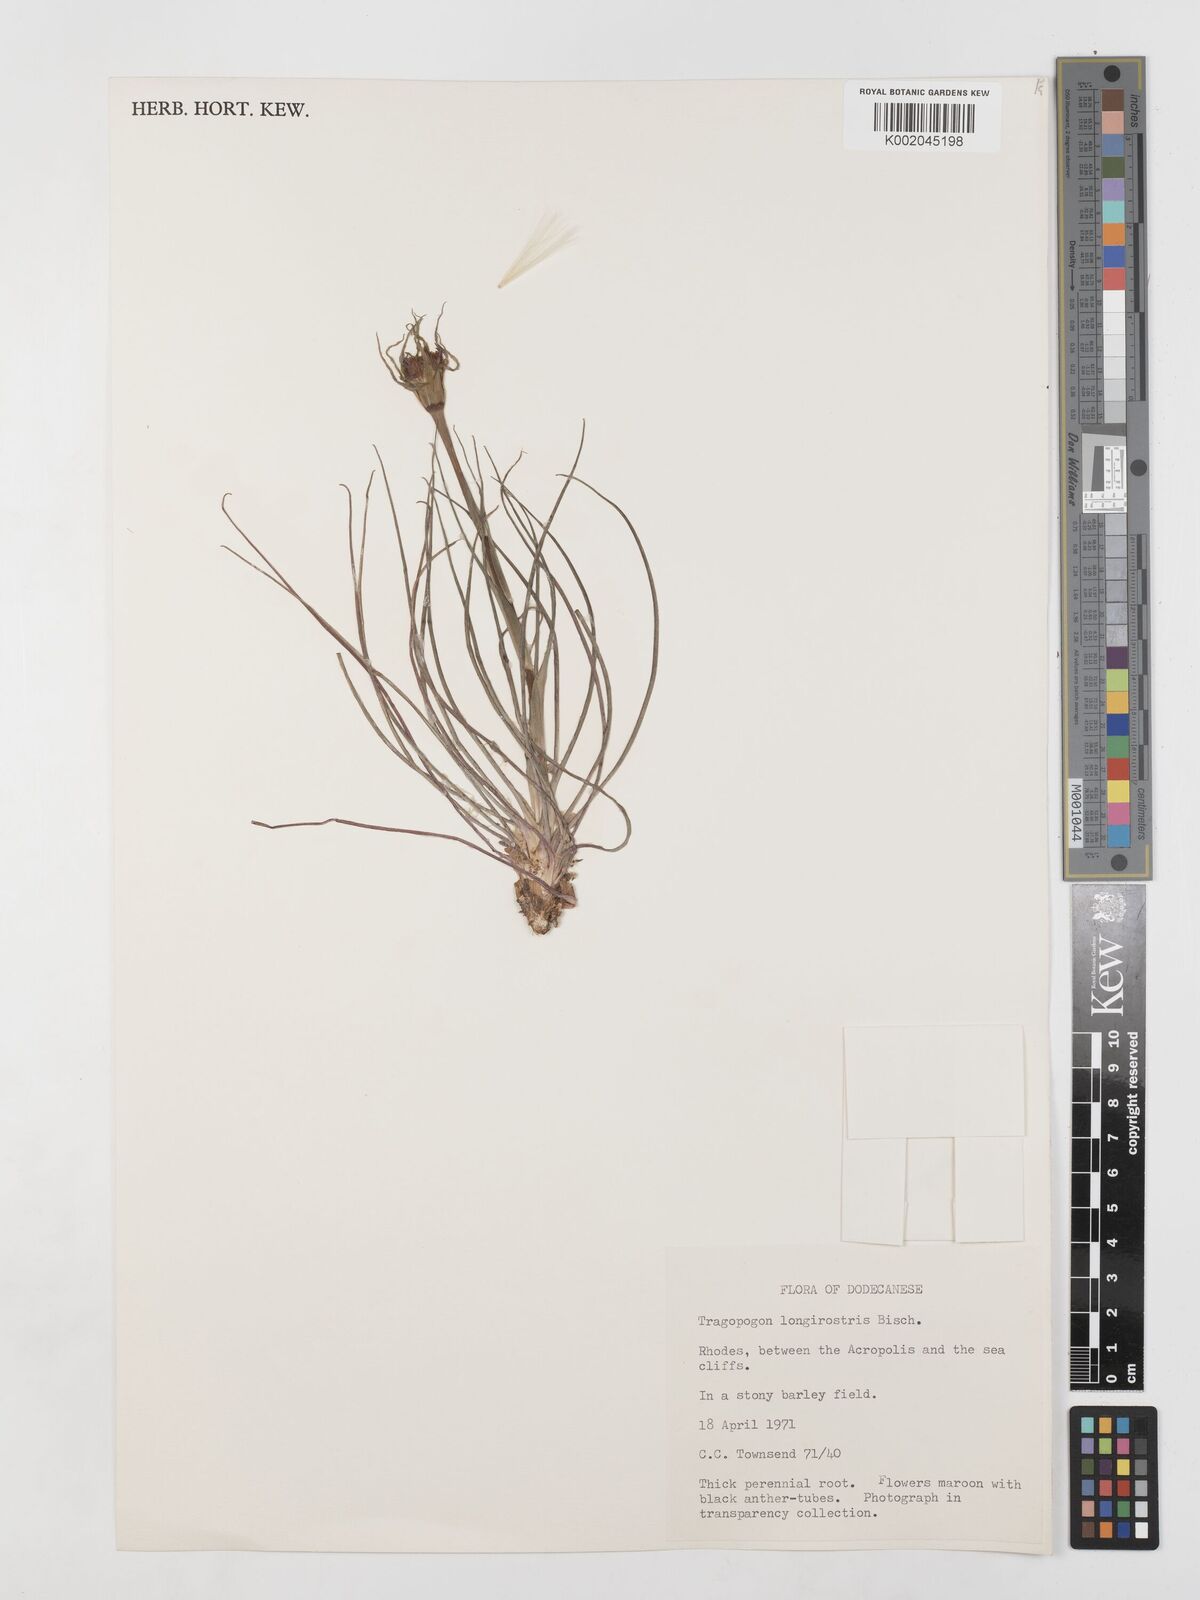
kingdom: Plantae
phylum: Tracheophyta
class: Magnoliopsida
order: Asterales
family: Asteraceae
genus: Tragopogon
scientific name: Tragopogon coelesyriacus
